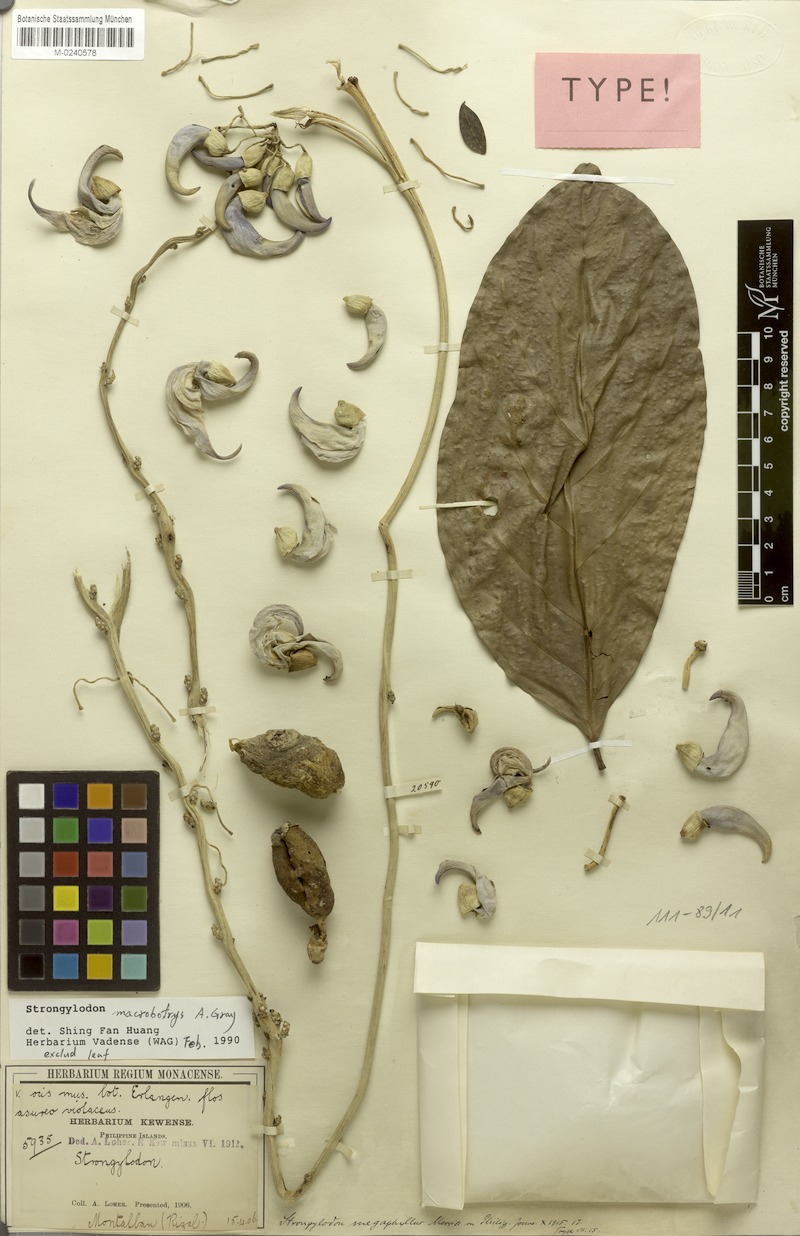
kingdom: Plantae
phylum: Tracheophyta
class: Magnoliopsida
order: Fabales
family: Fabaceae
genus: Strongylodon
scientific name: Strongylodon macrobotrys
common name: Jadevine
